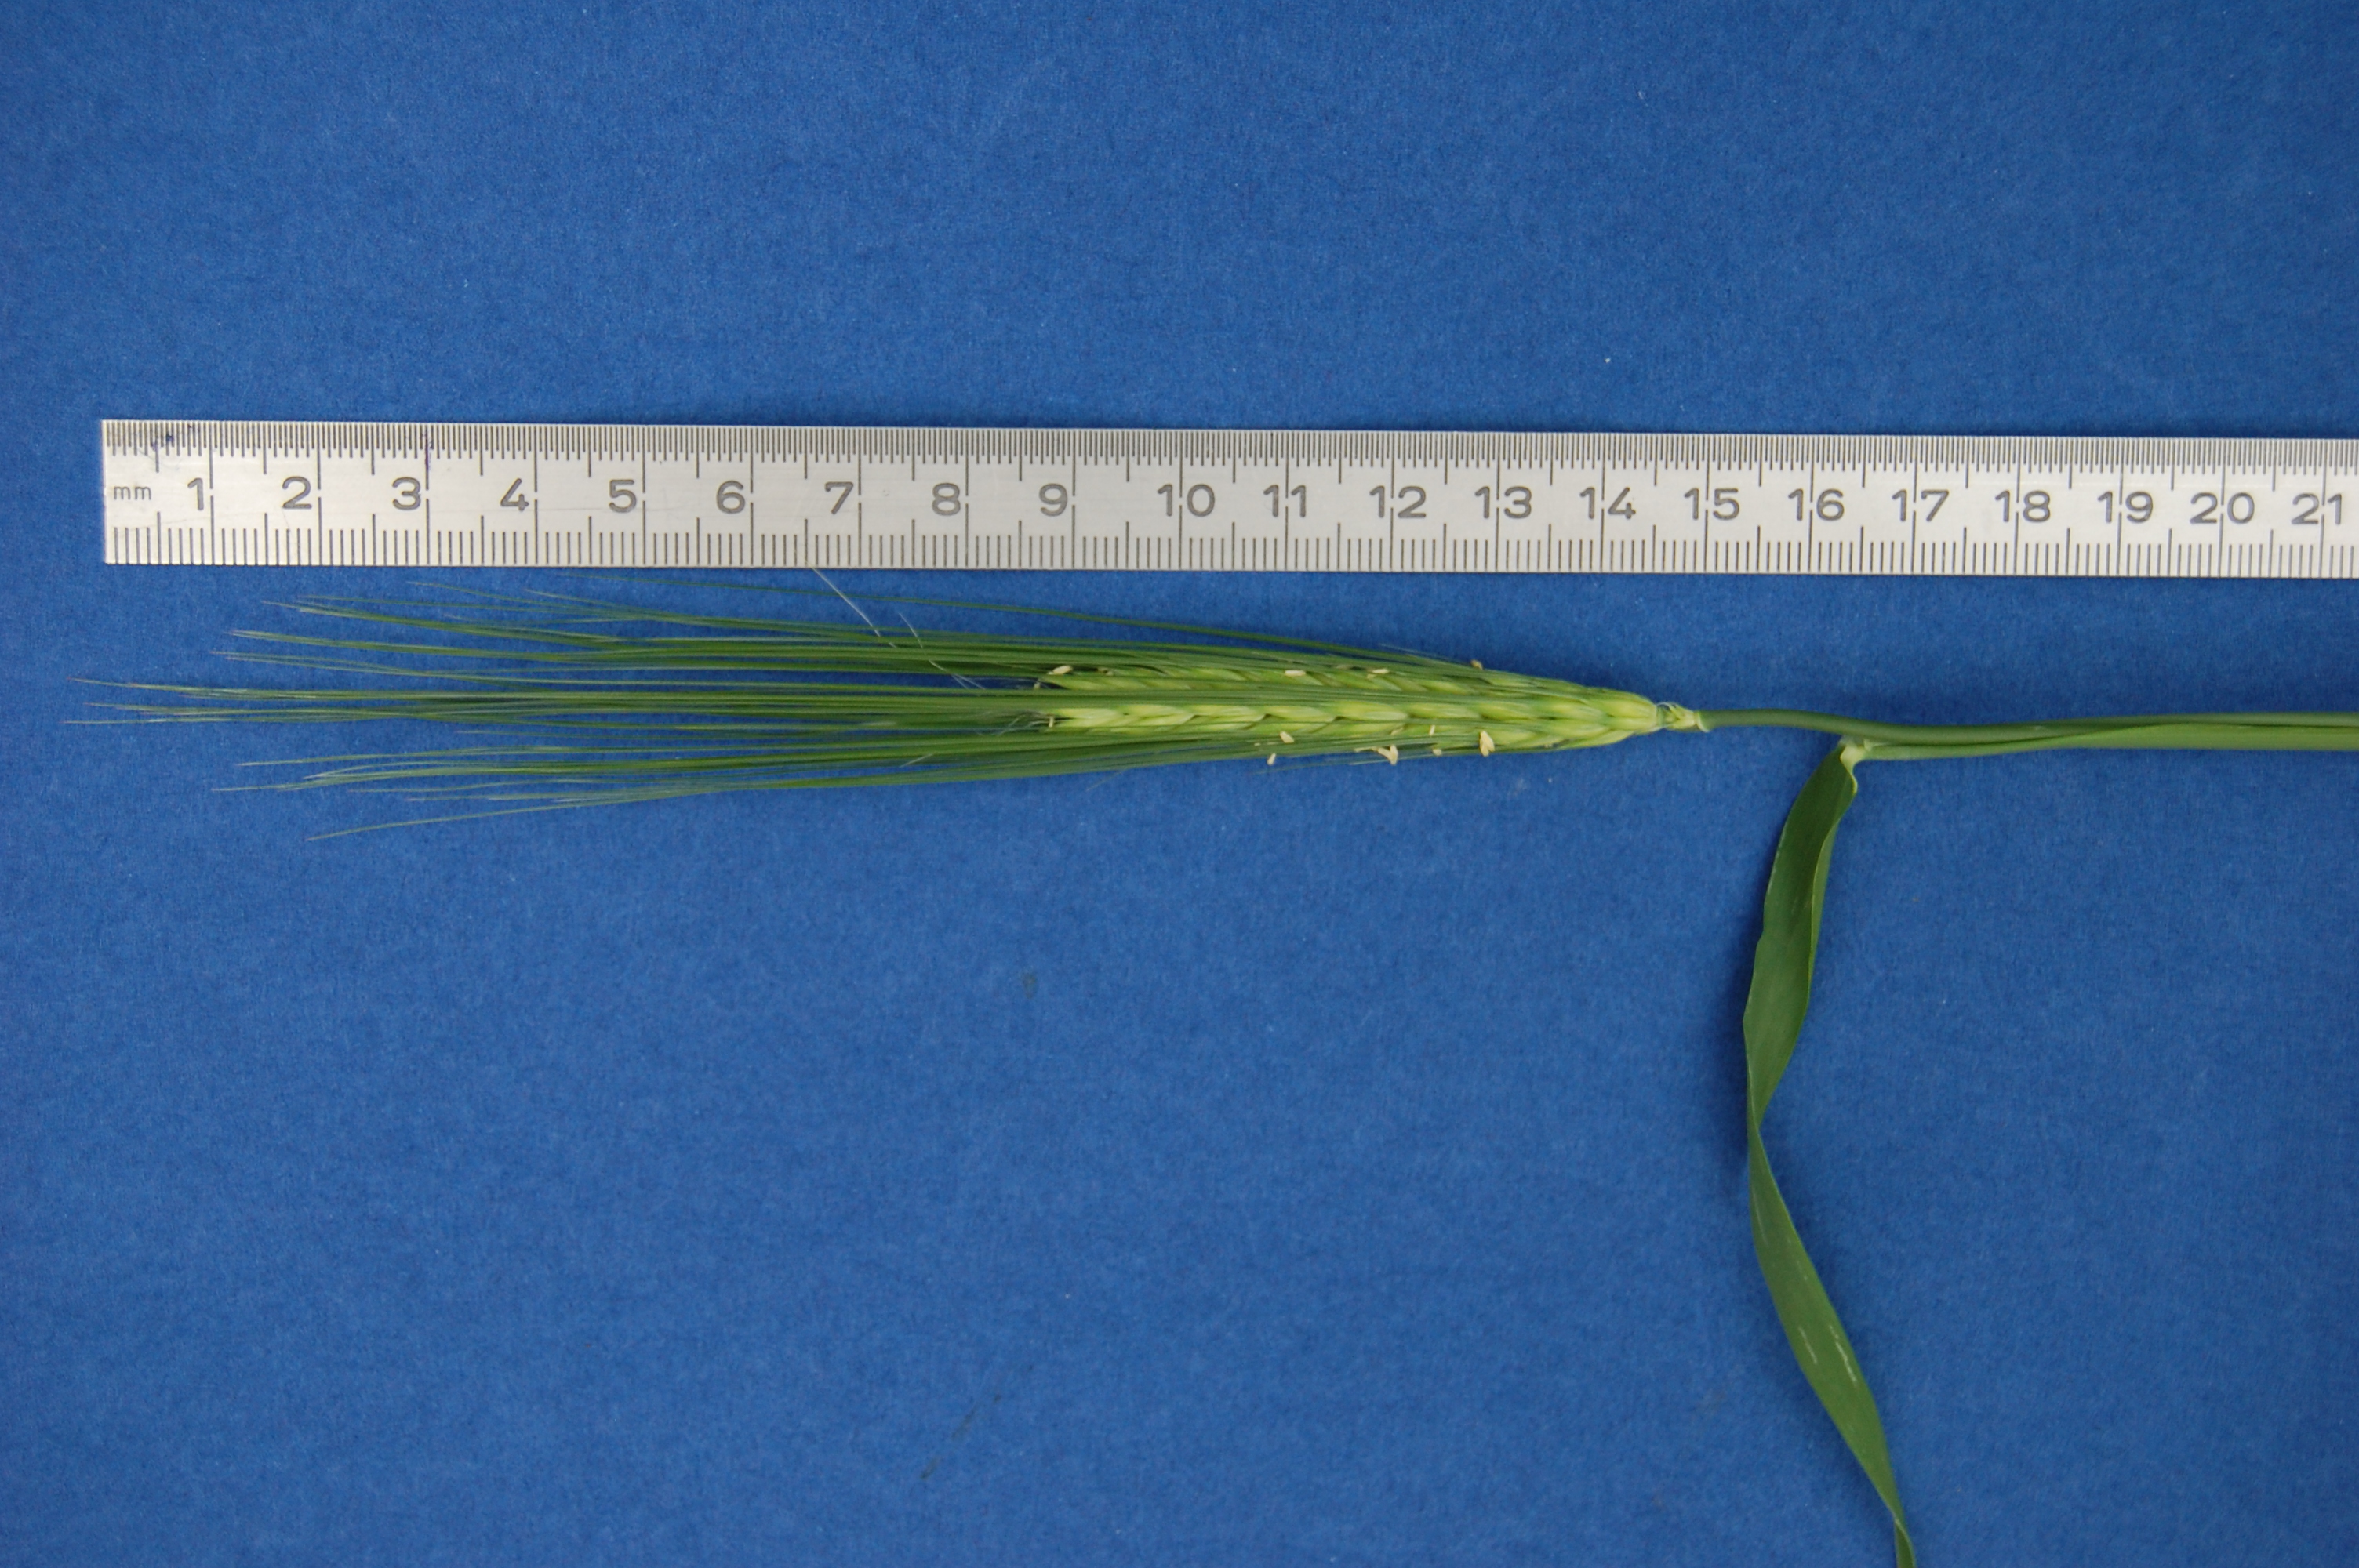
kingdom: Plantae
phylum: Tracheophyta
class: Liliopsida
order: Poales
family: Poaceae
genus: Hordeum
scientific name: Hordeum vulgare
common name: Common barley
